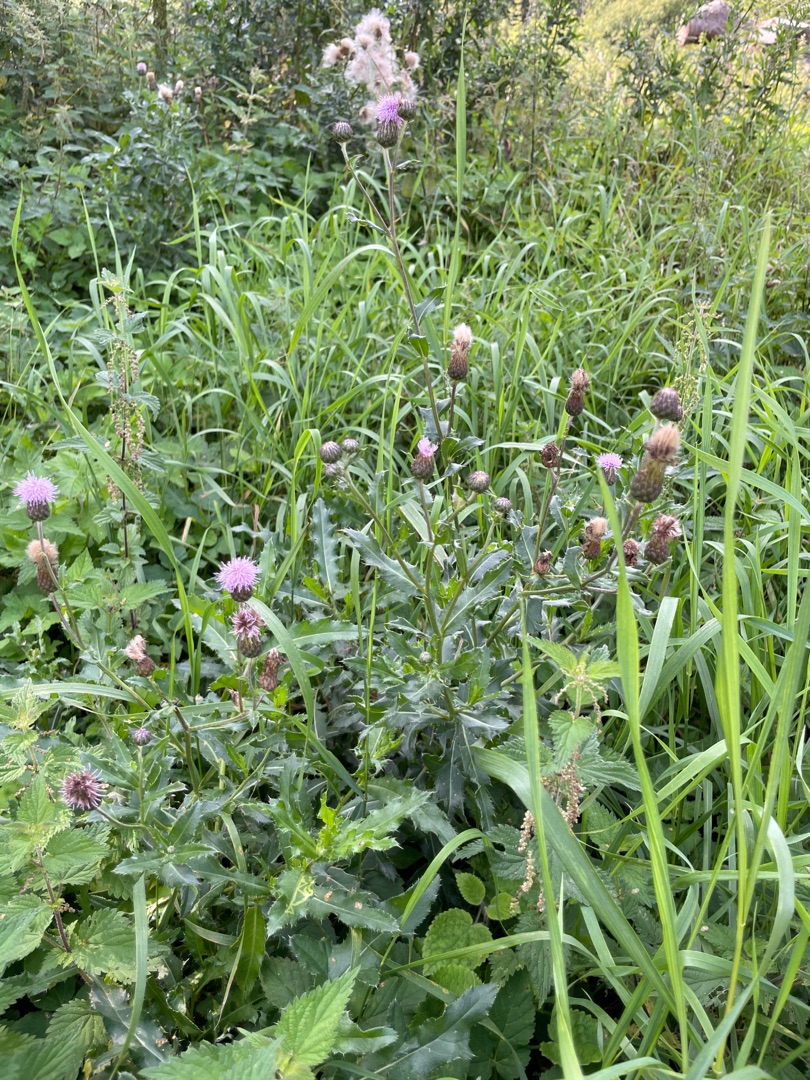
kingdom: Plantae
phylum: Tracheophyta
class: Magnoliopsida
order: Asterales
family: Asteraceae
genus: Cirsium
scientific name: Cirsium arvense
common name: Ager-tidsel
